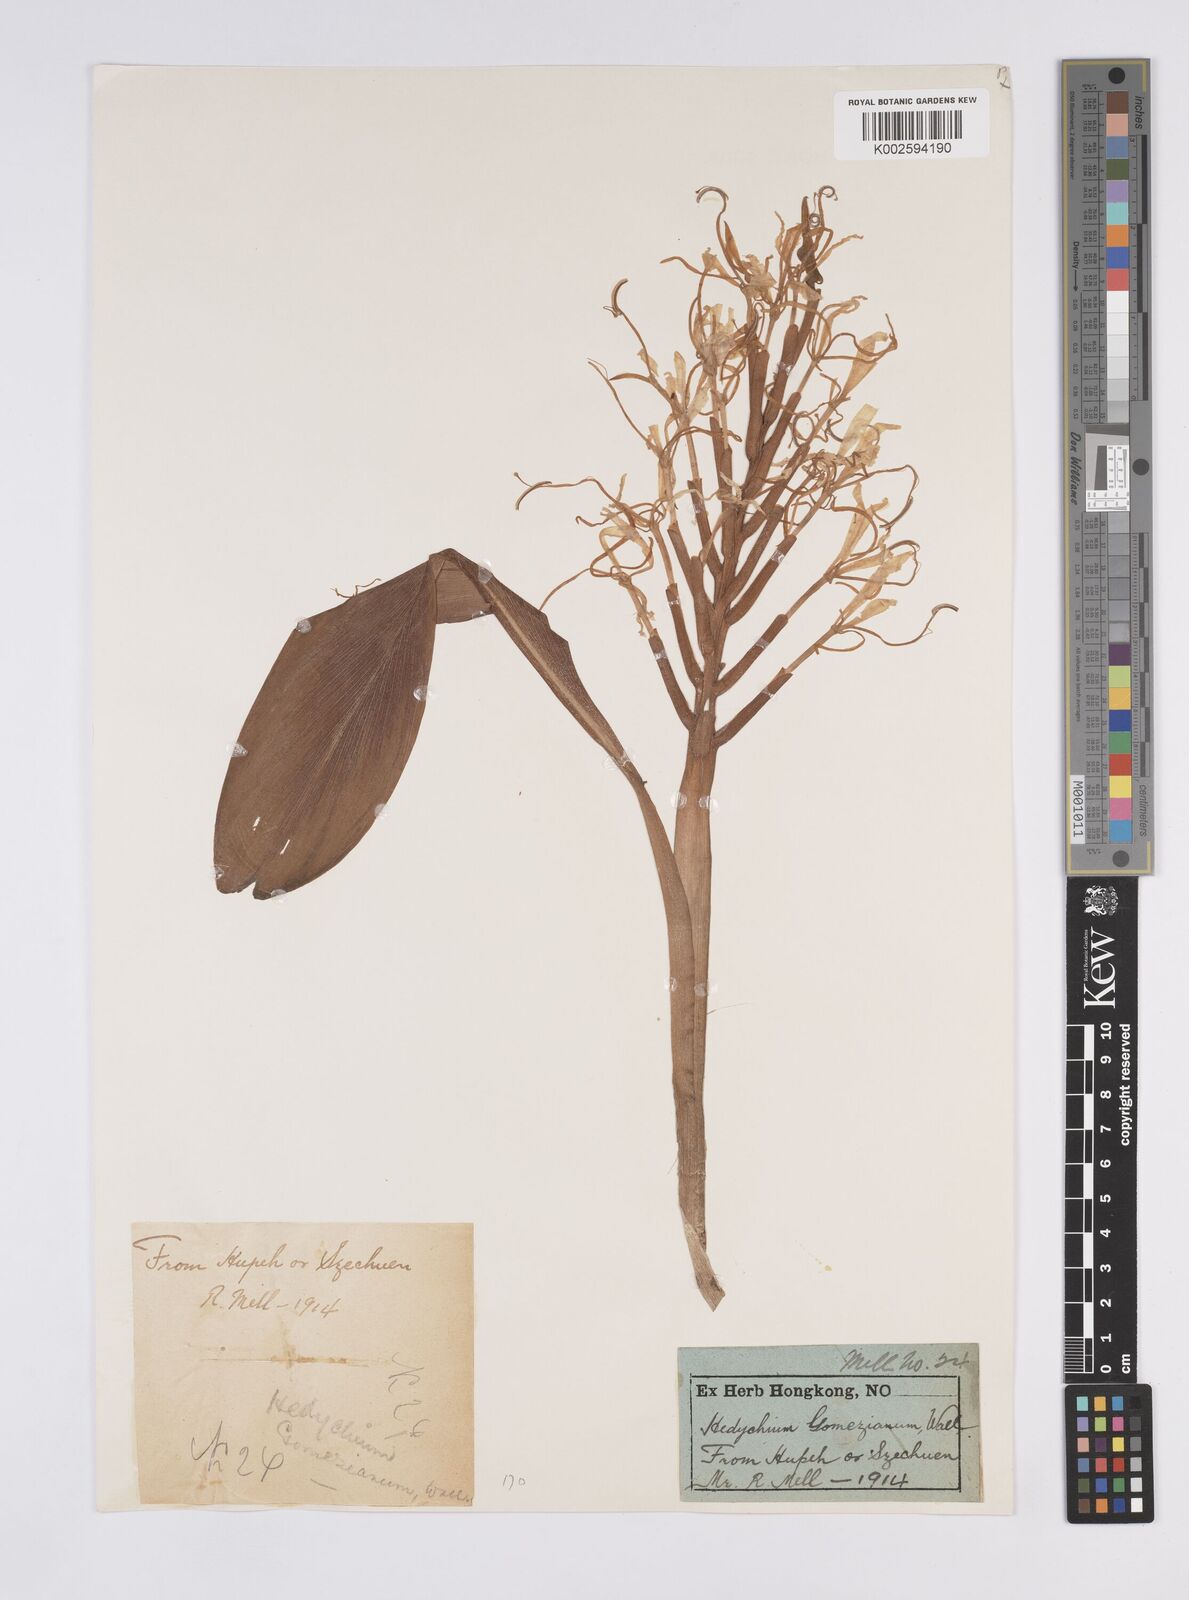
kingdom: Plantae
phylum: Tracheophyta
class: Liliopsida
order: Zingiberales
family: Zingiberaceae
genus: Hedychium
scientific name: Hedychium gomezianum
